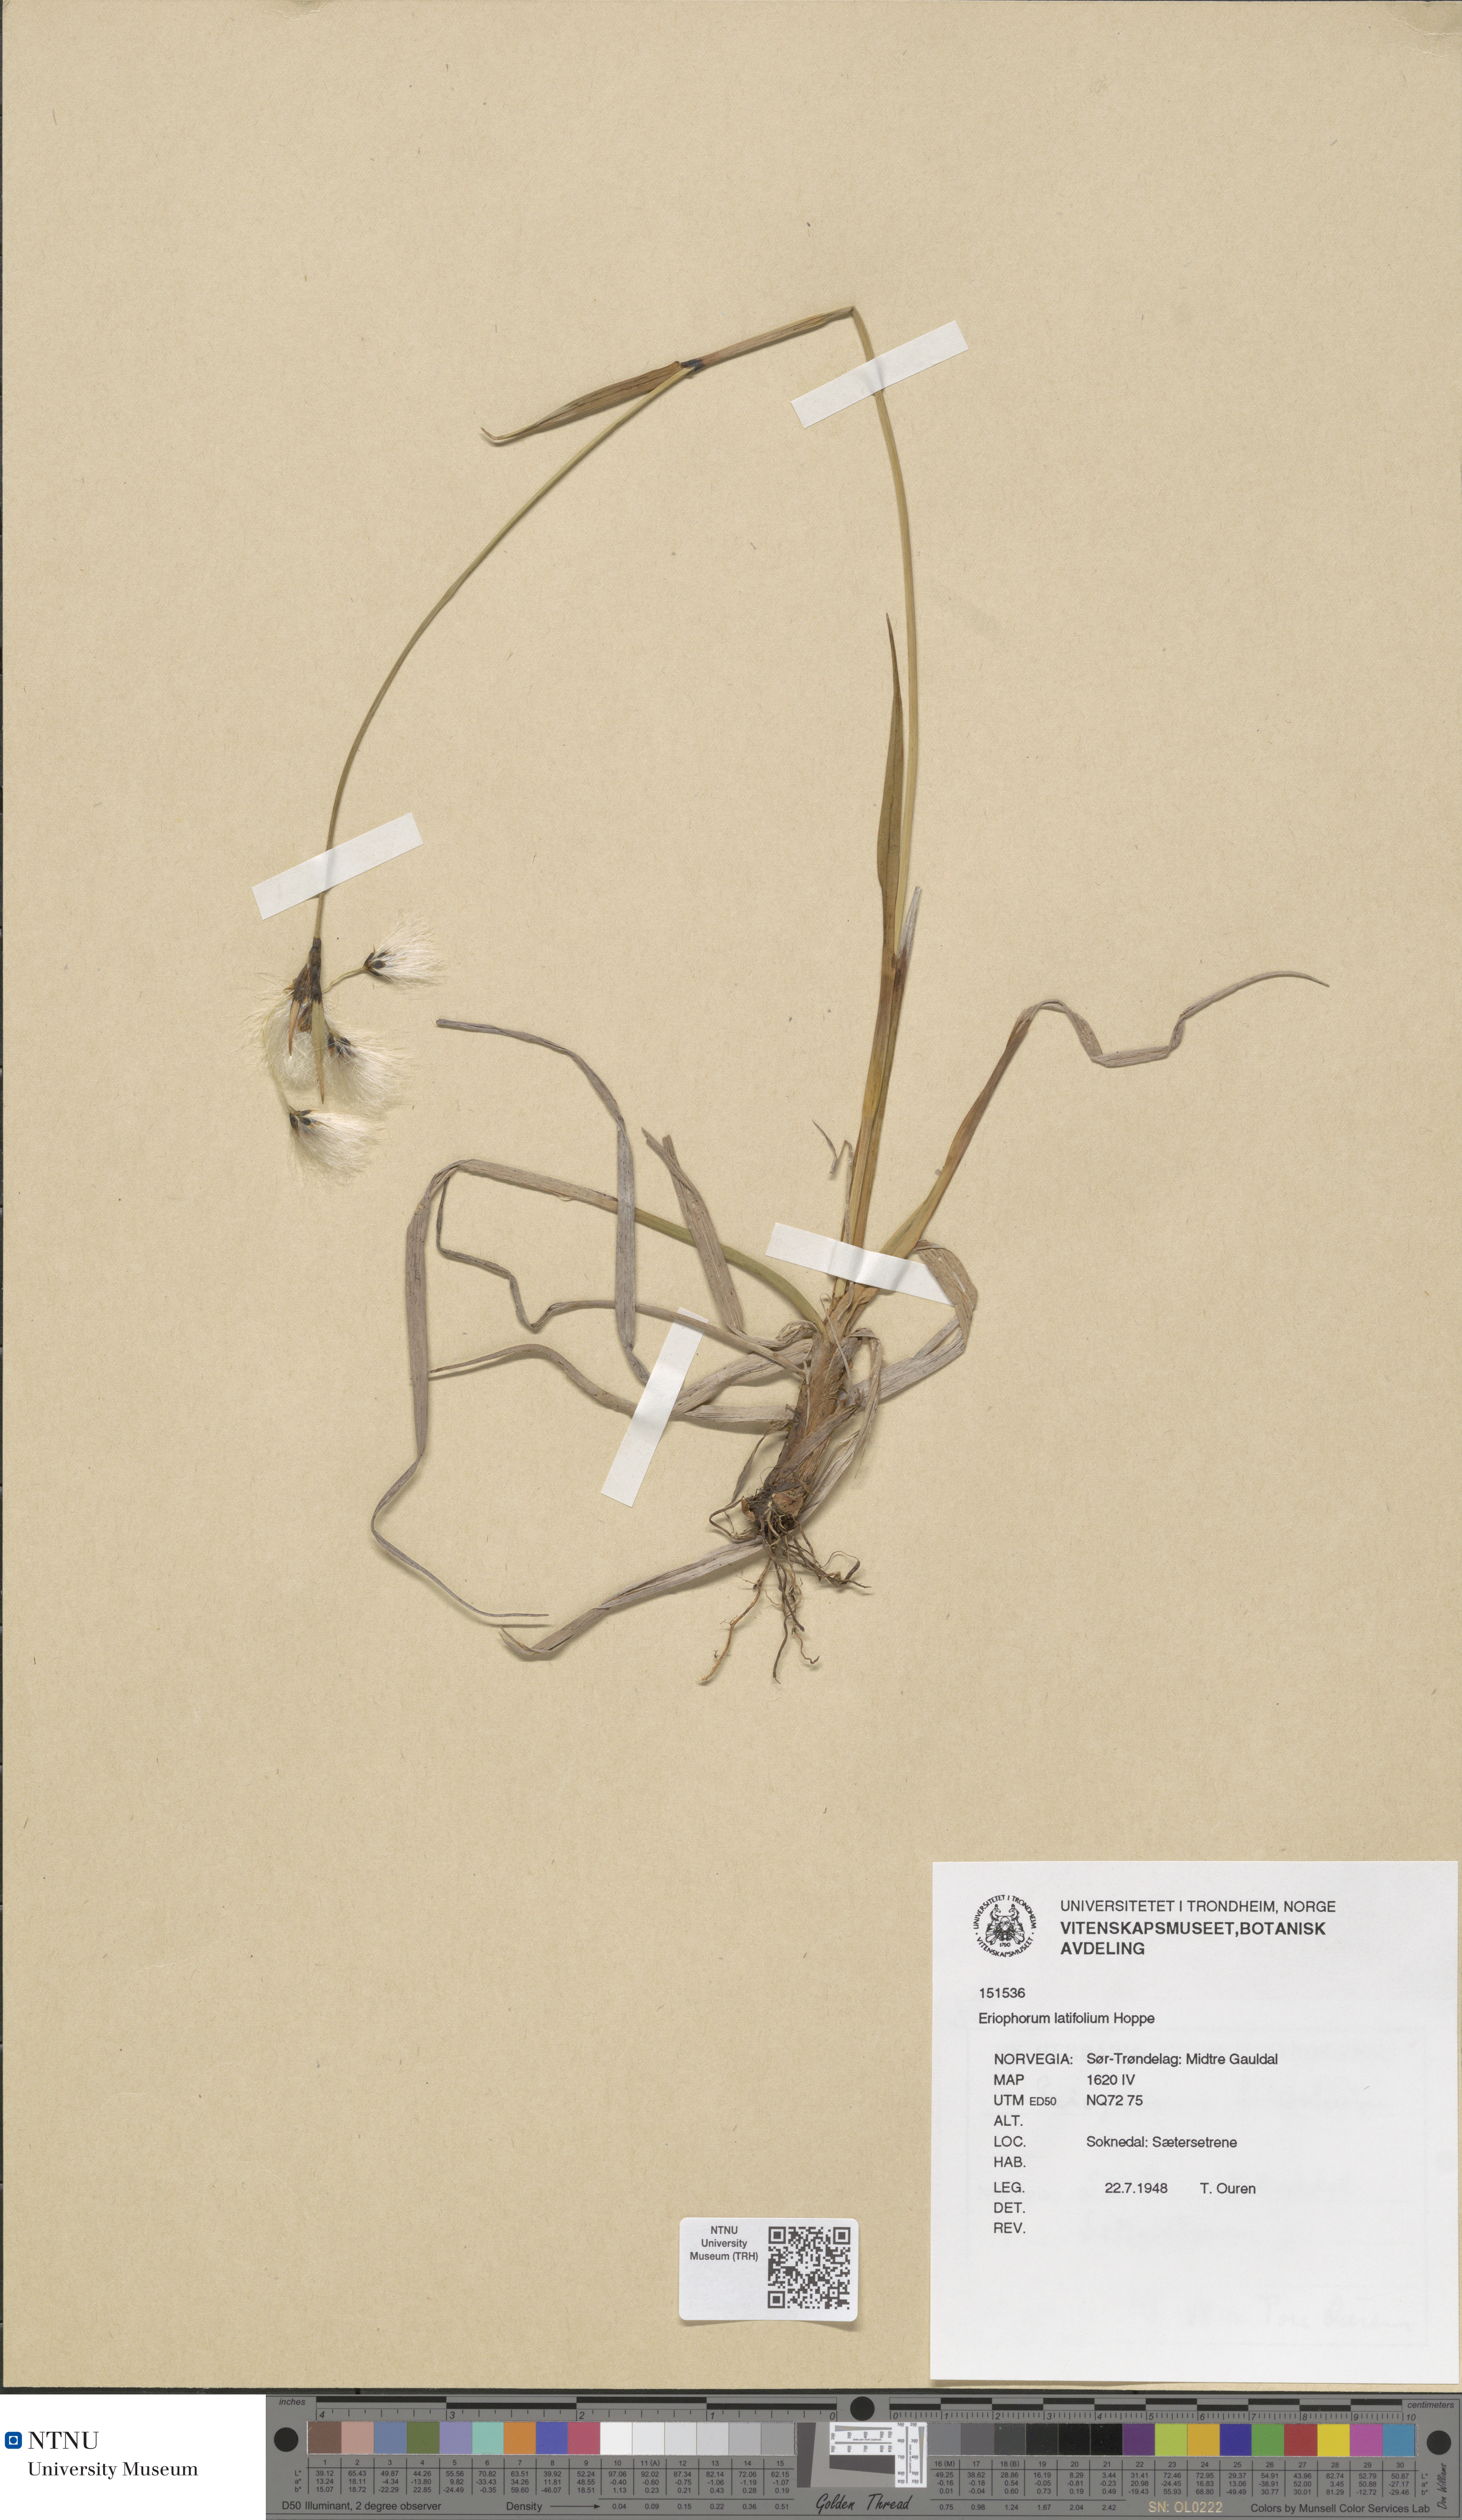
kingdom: Plantae
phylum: Tracheophyta
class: Liliopsida
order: Poales
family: Cyperaceae
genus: Eriophorum
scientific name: Eriophorum latifolium
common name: Broad-leaved cottongrass
